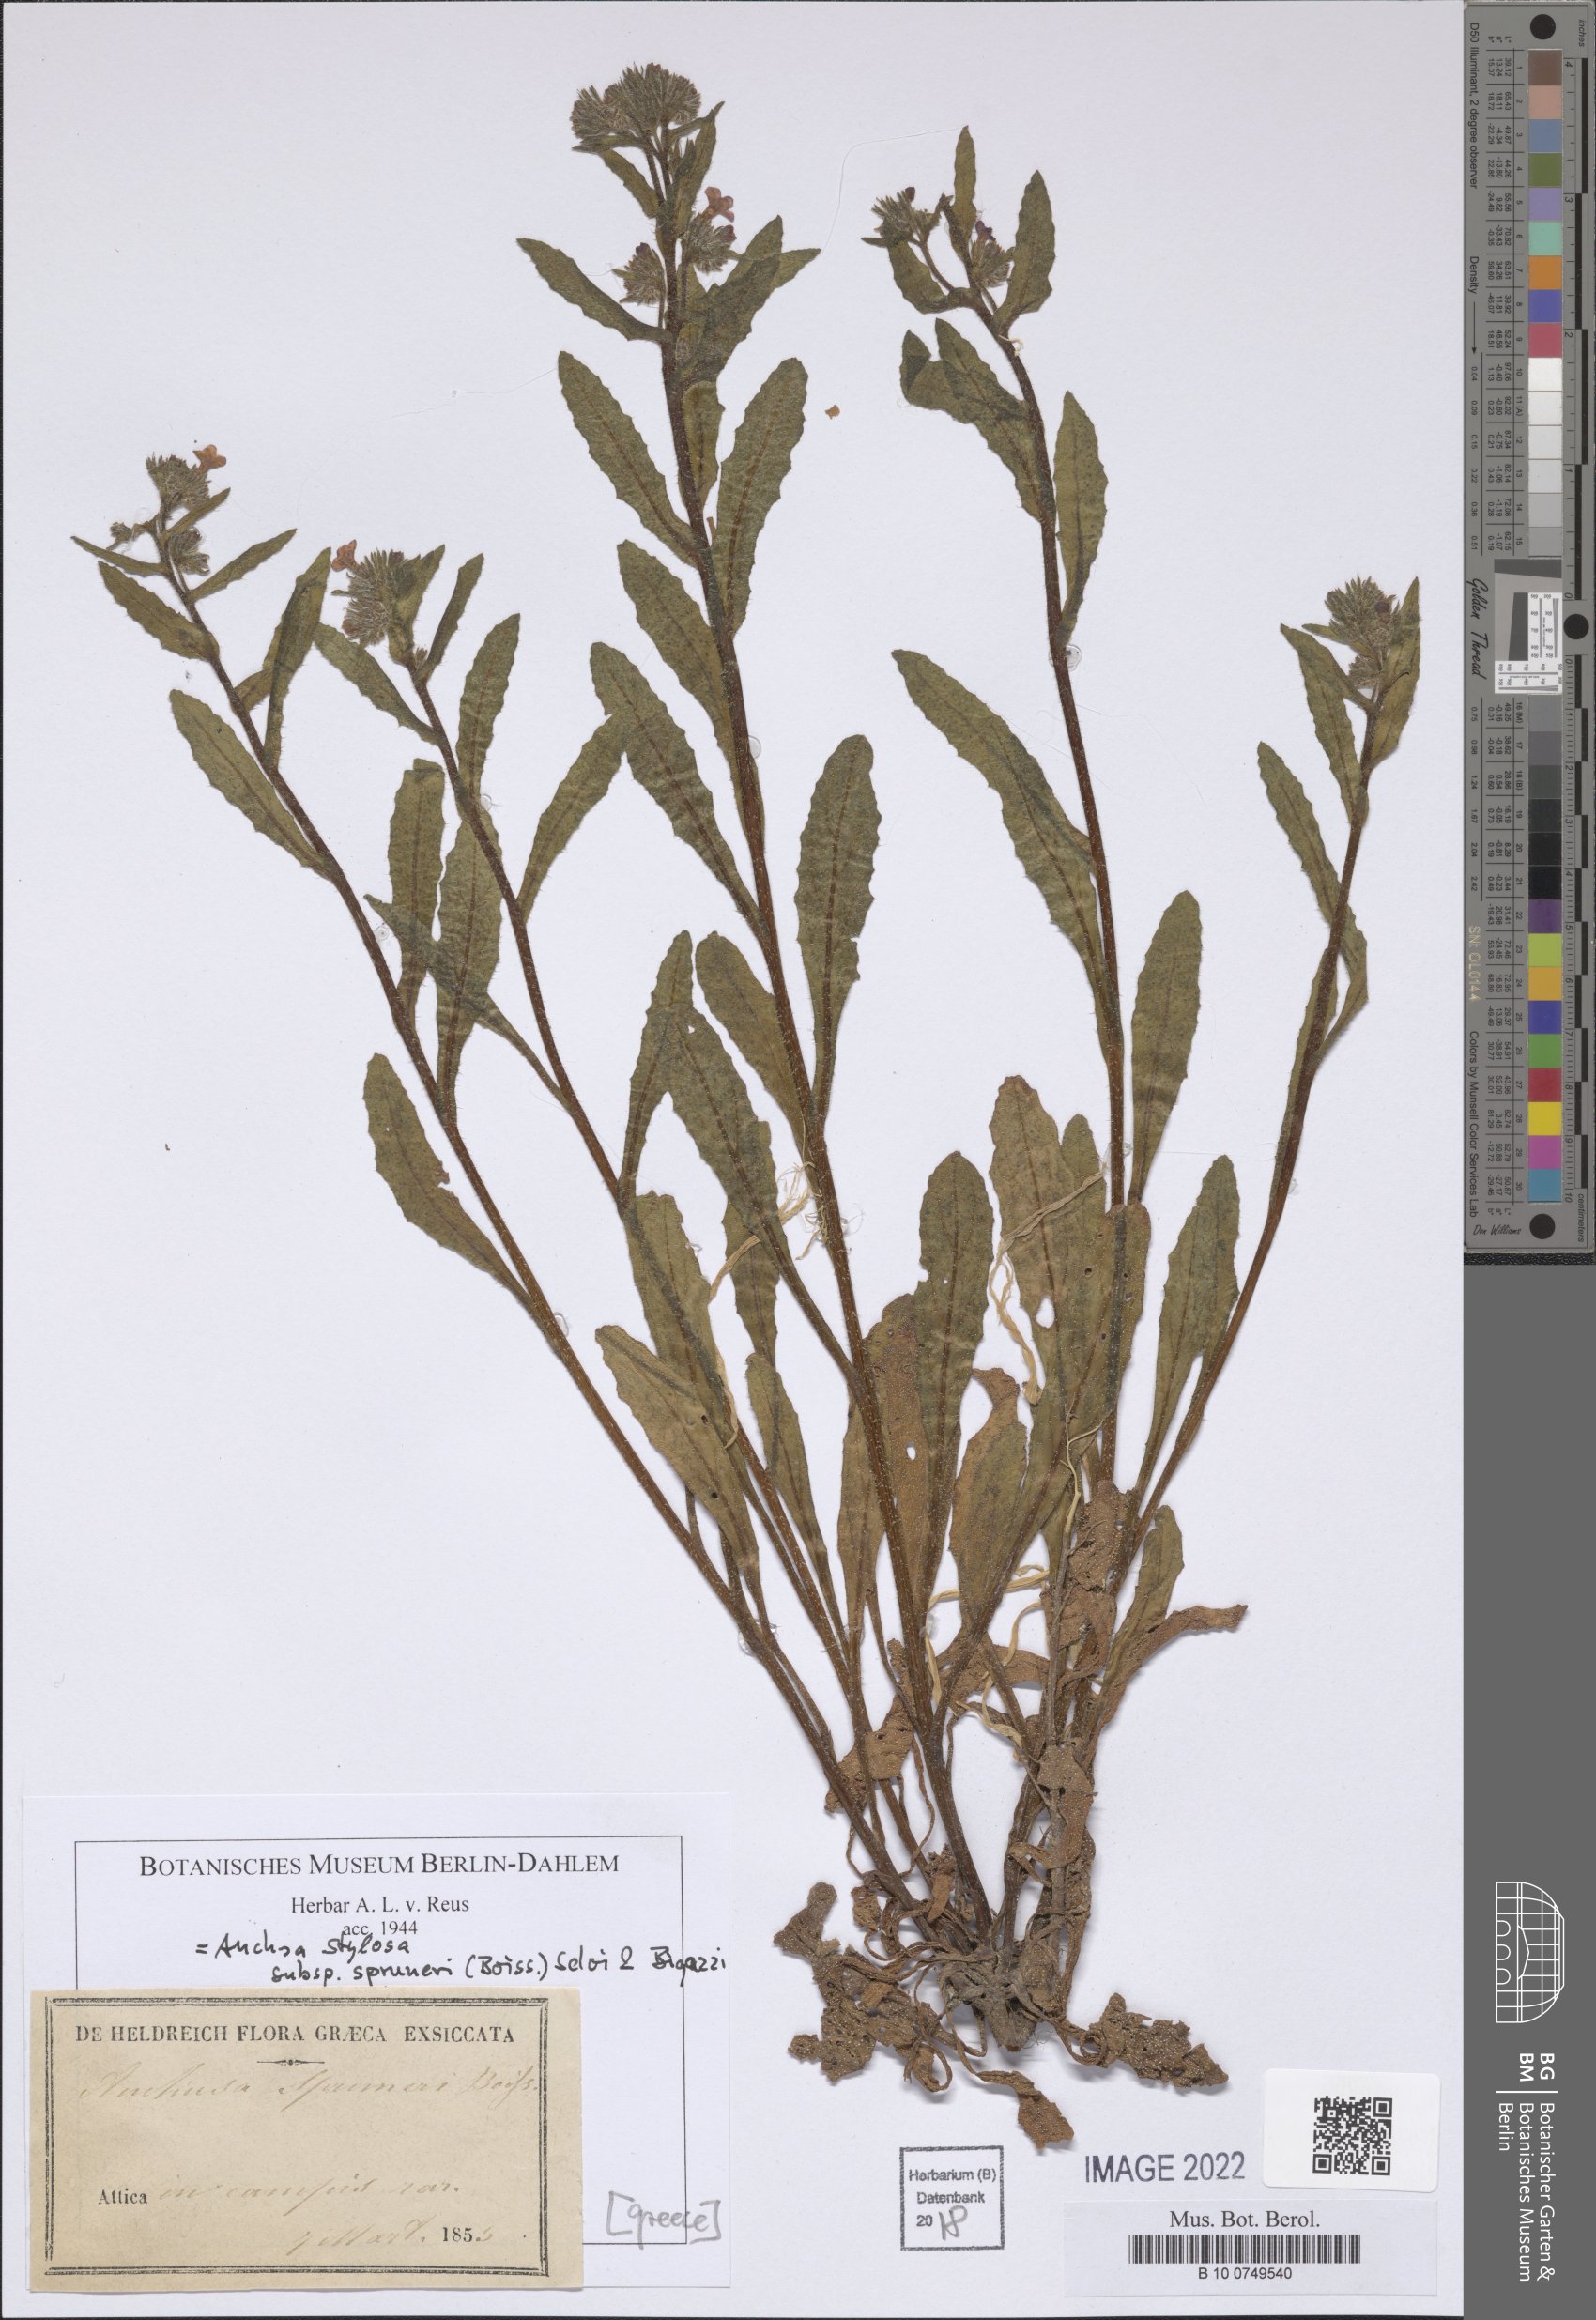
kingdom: Plantae
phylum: Tracheophyta
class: Magnoliopsida
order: Boraginales
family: Boraginaceae
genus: Anchusa
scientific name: Anchusa stylosa
